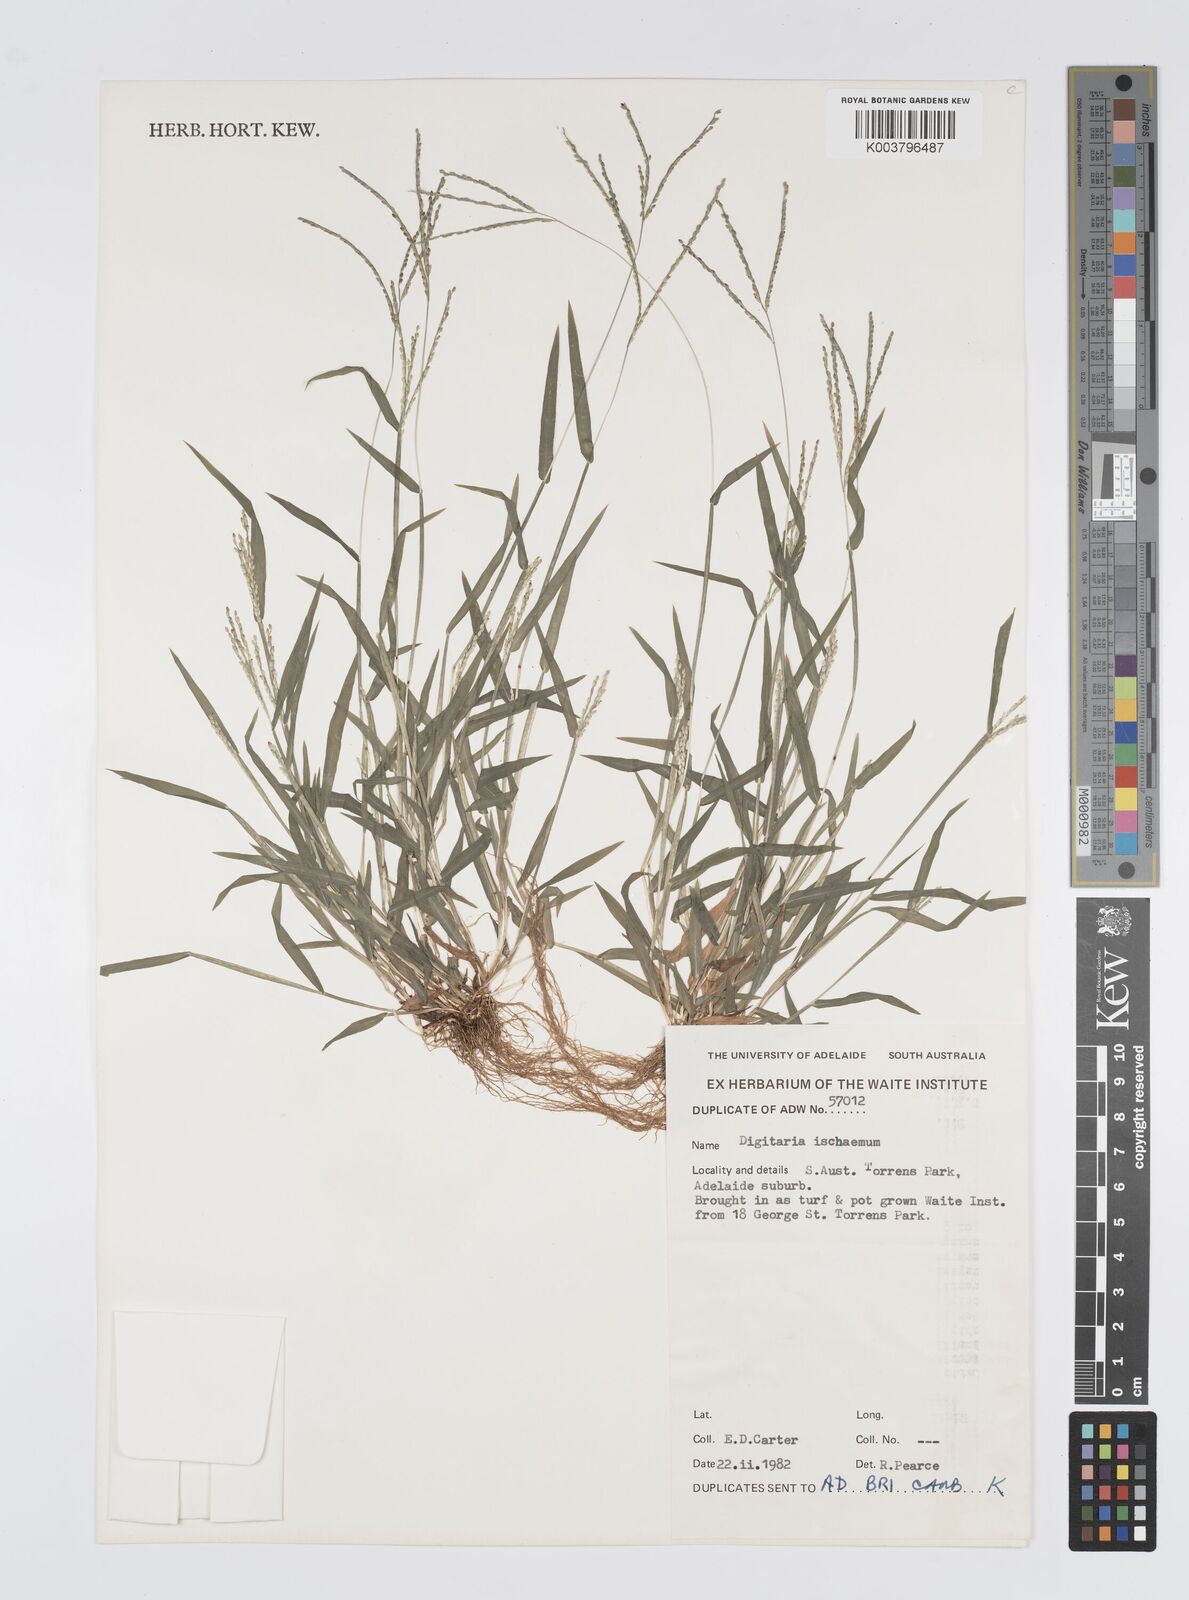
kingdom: Plantae
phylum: Tracheophyta
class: Liliopsida
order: Poales
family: Poaceae
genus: Digitaria
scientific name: Digitaria ischaemum
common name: Smooth crabgrass
